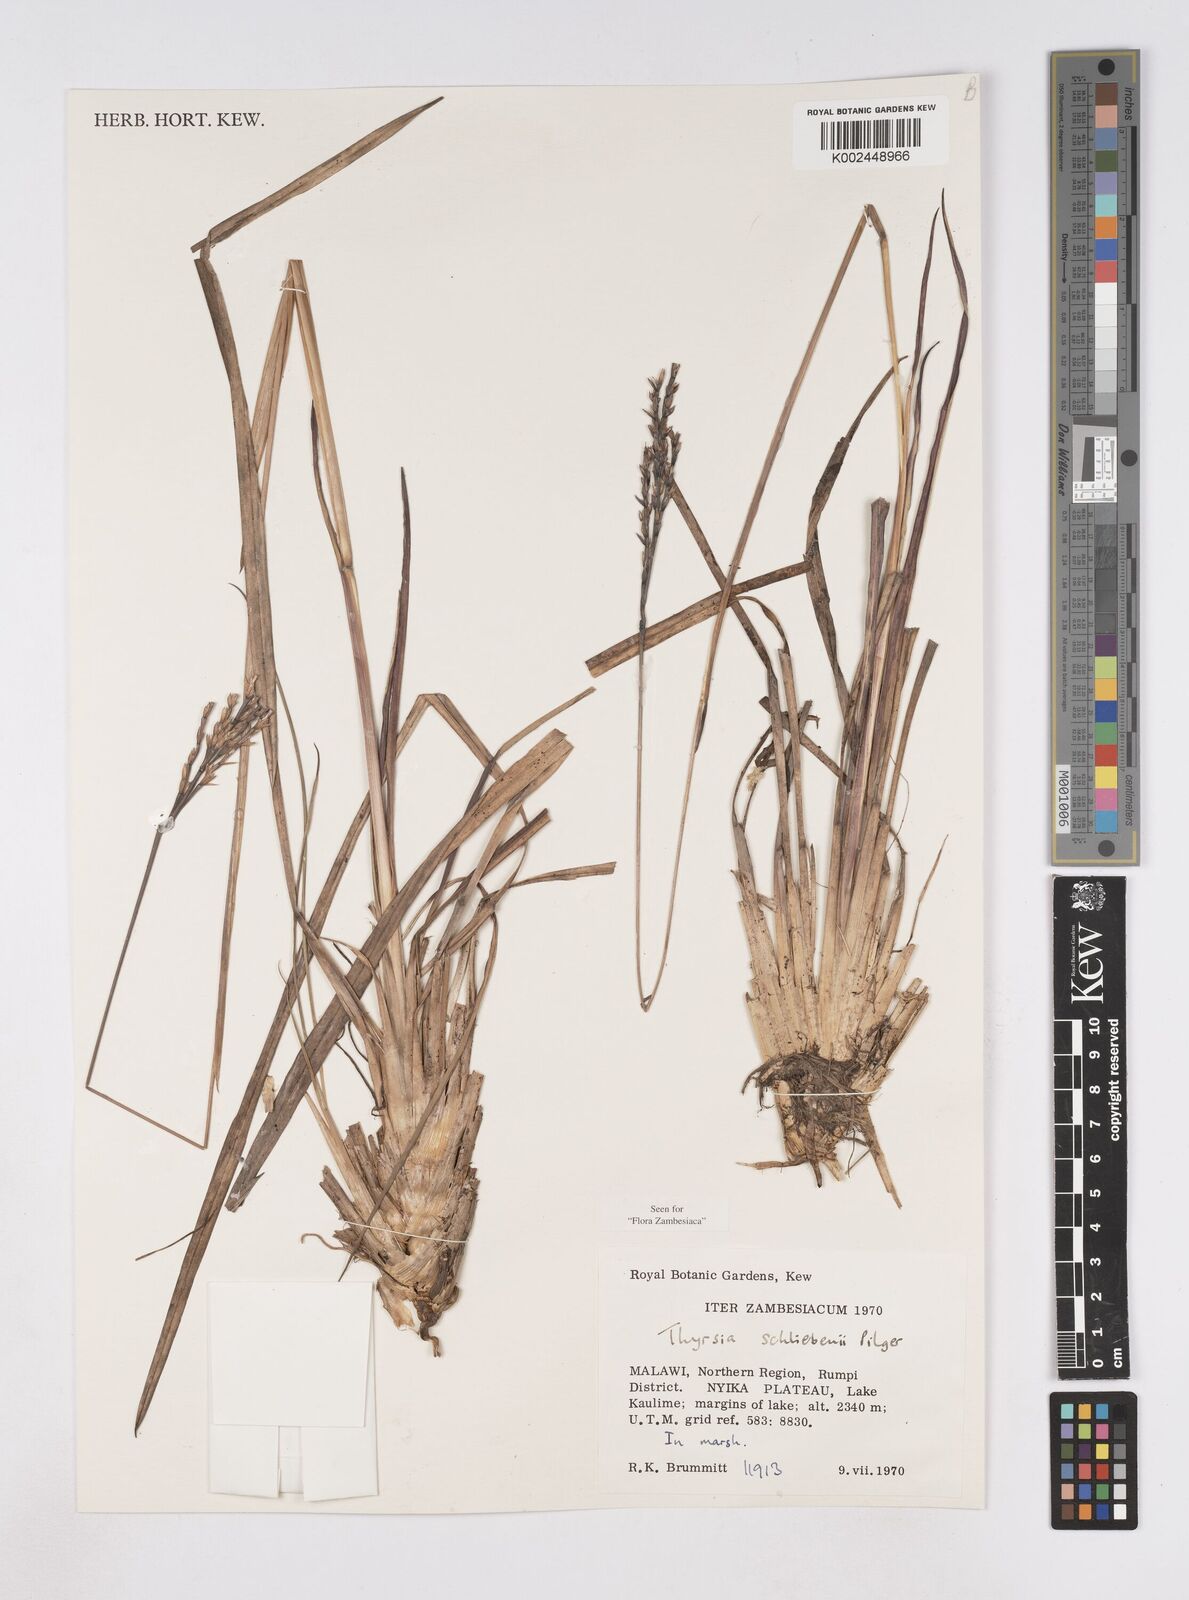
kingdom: Plantae
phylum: Tracheophyta
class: Liliopsida
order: Poales
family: Poaceae
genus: Thyrsia
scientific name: Thyrsia schliebenii
